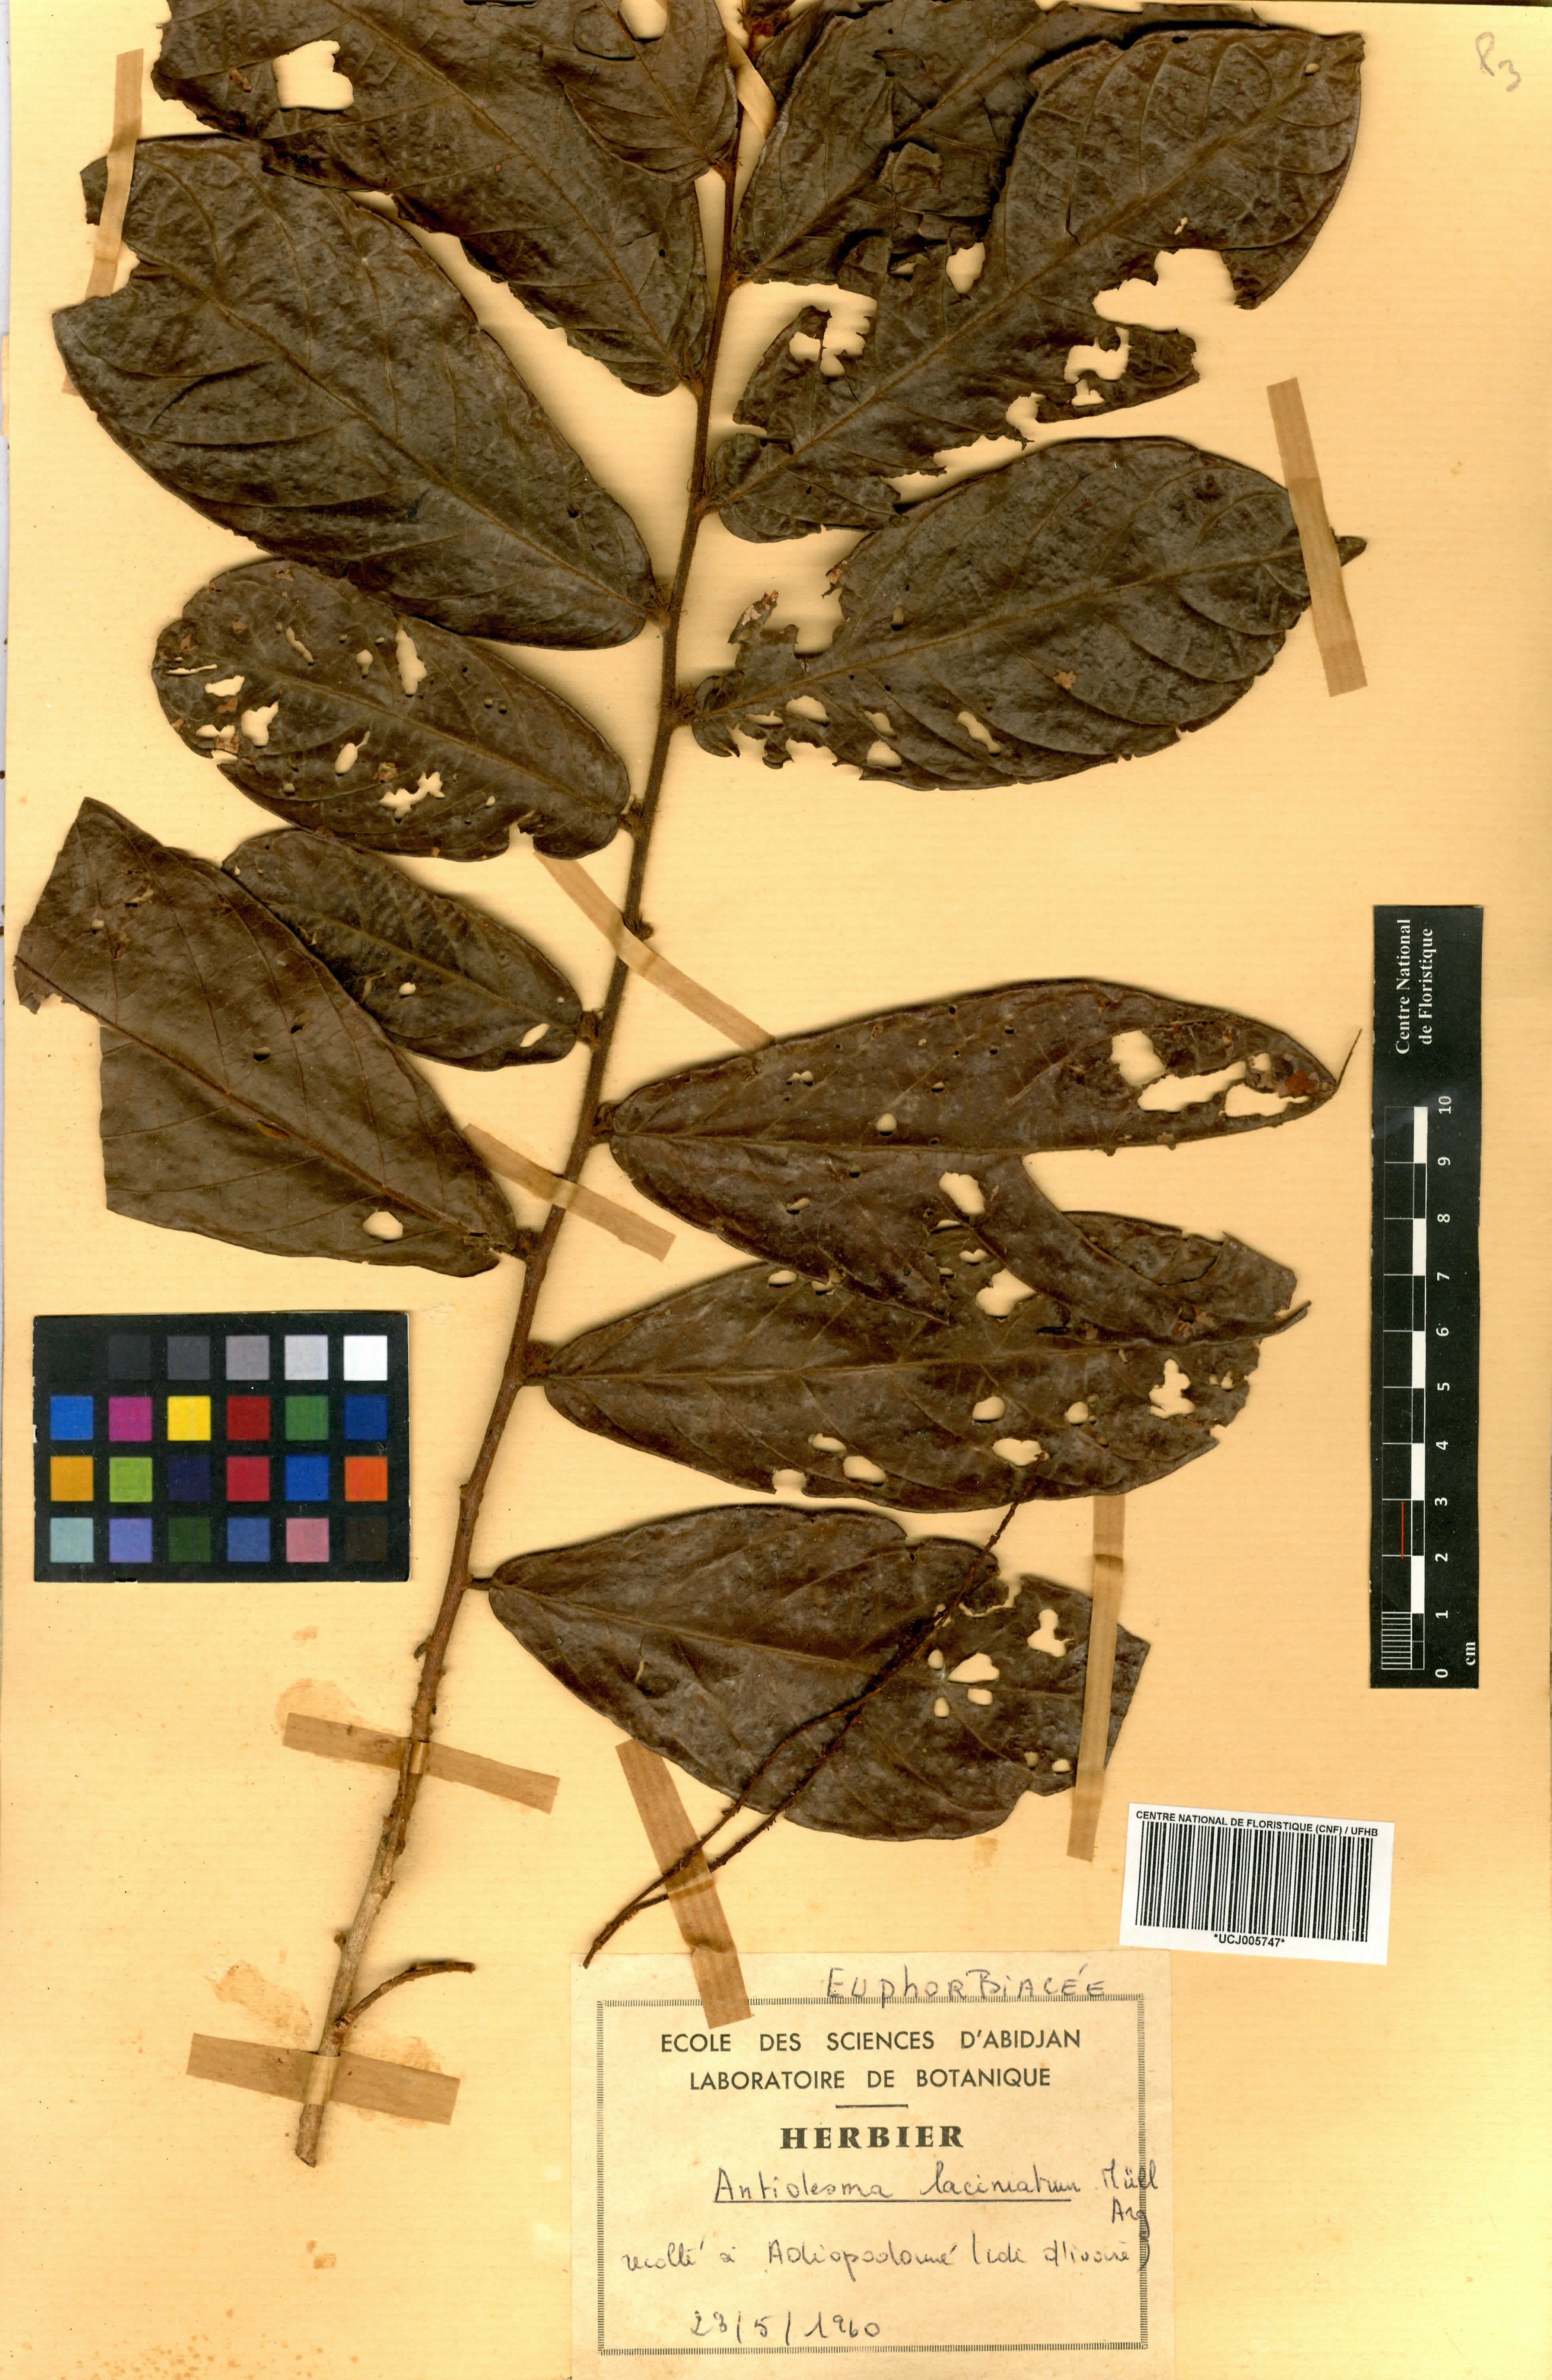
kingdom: Plantae
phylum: Tracheophyta
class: Magnoliopsida
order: Malpighiales
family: Phyllanthaceae
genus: Antidesma
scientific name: Antidesma laciniatum
